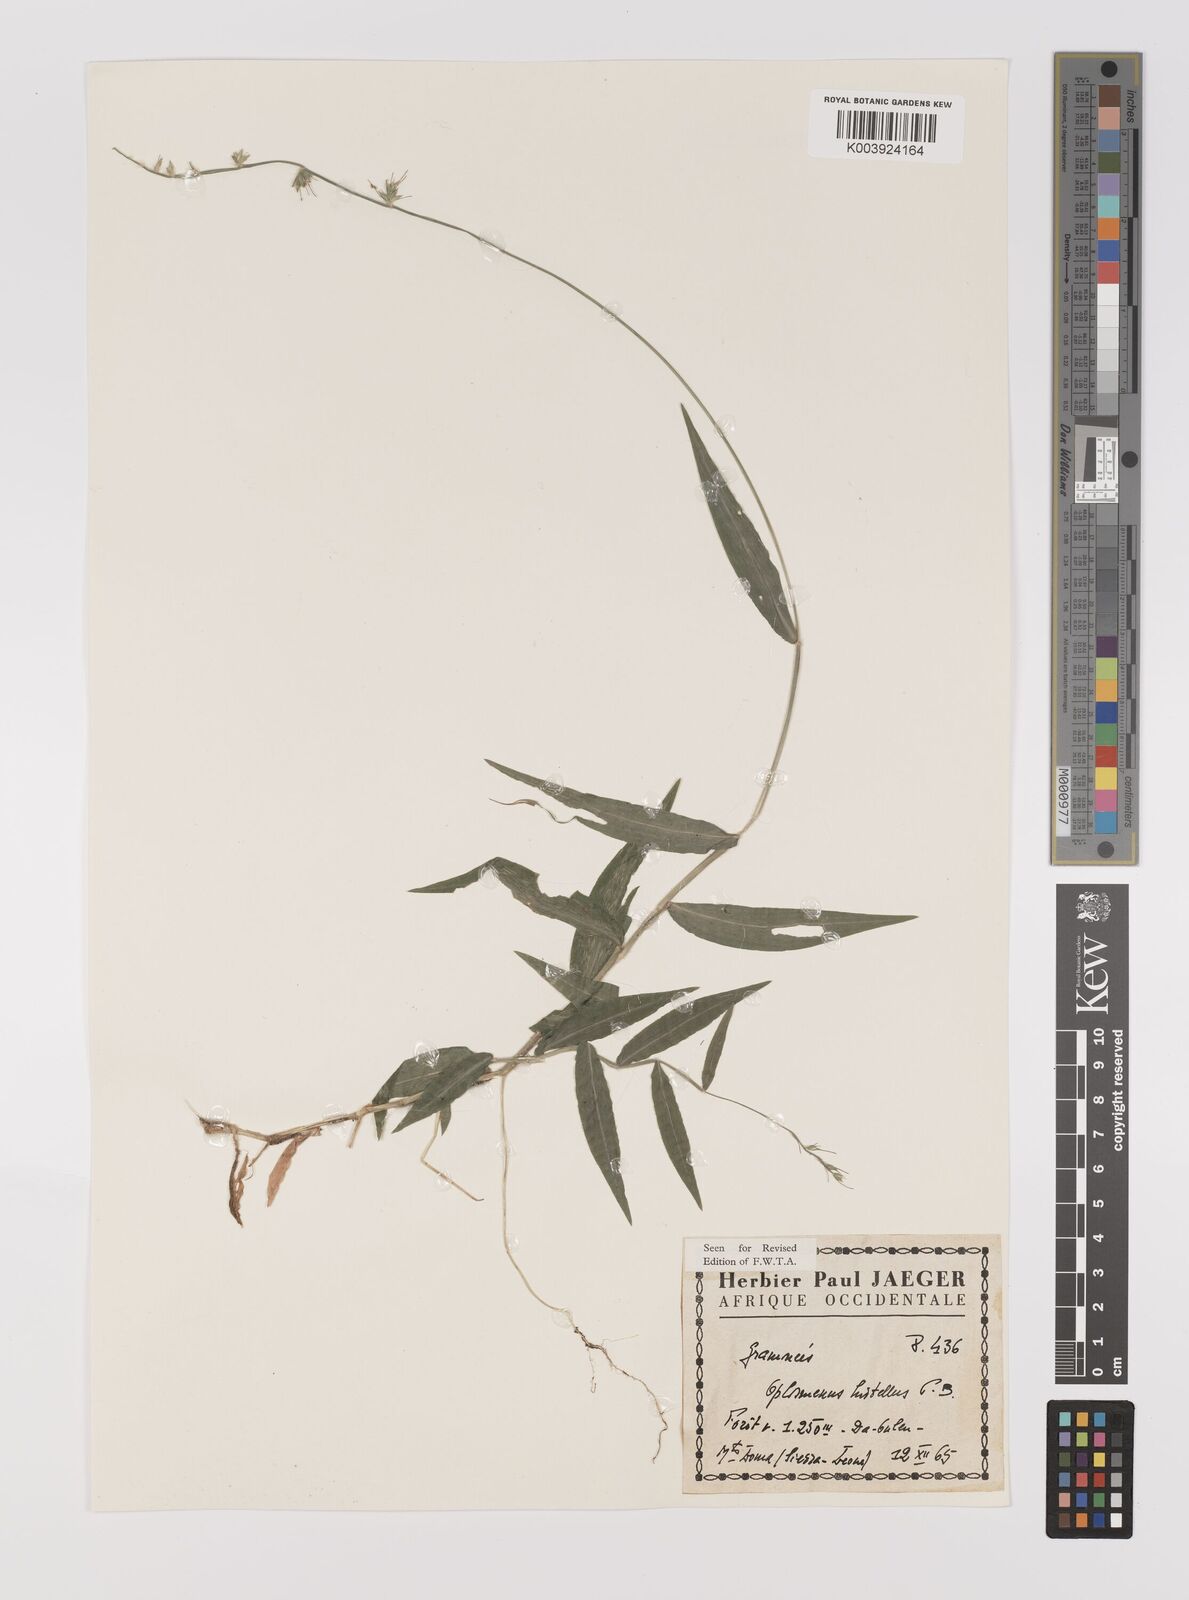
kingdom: Plantae
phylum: Tracheophyta
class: Liliopsida
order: Poales
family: Poaceae
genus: Oplismenus
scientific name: Oplismenus hirtellus
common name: Basketgrass
